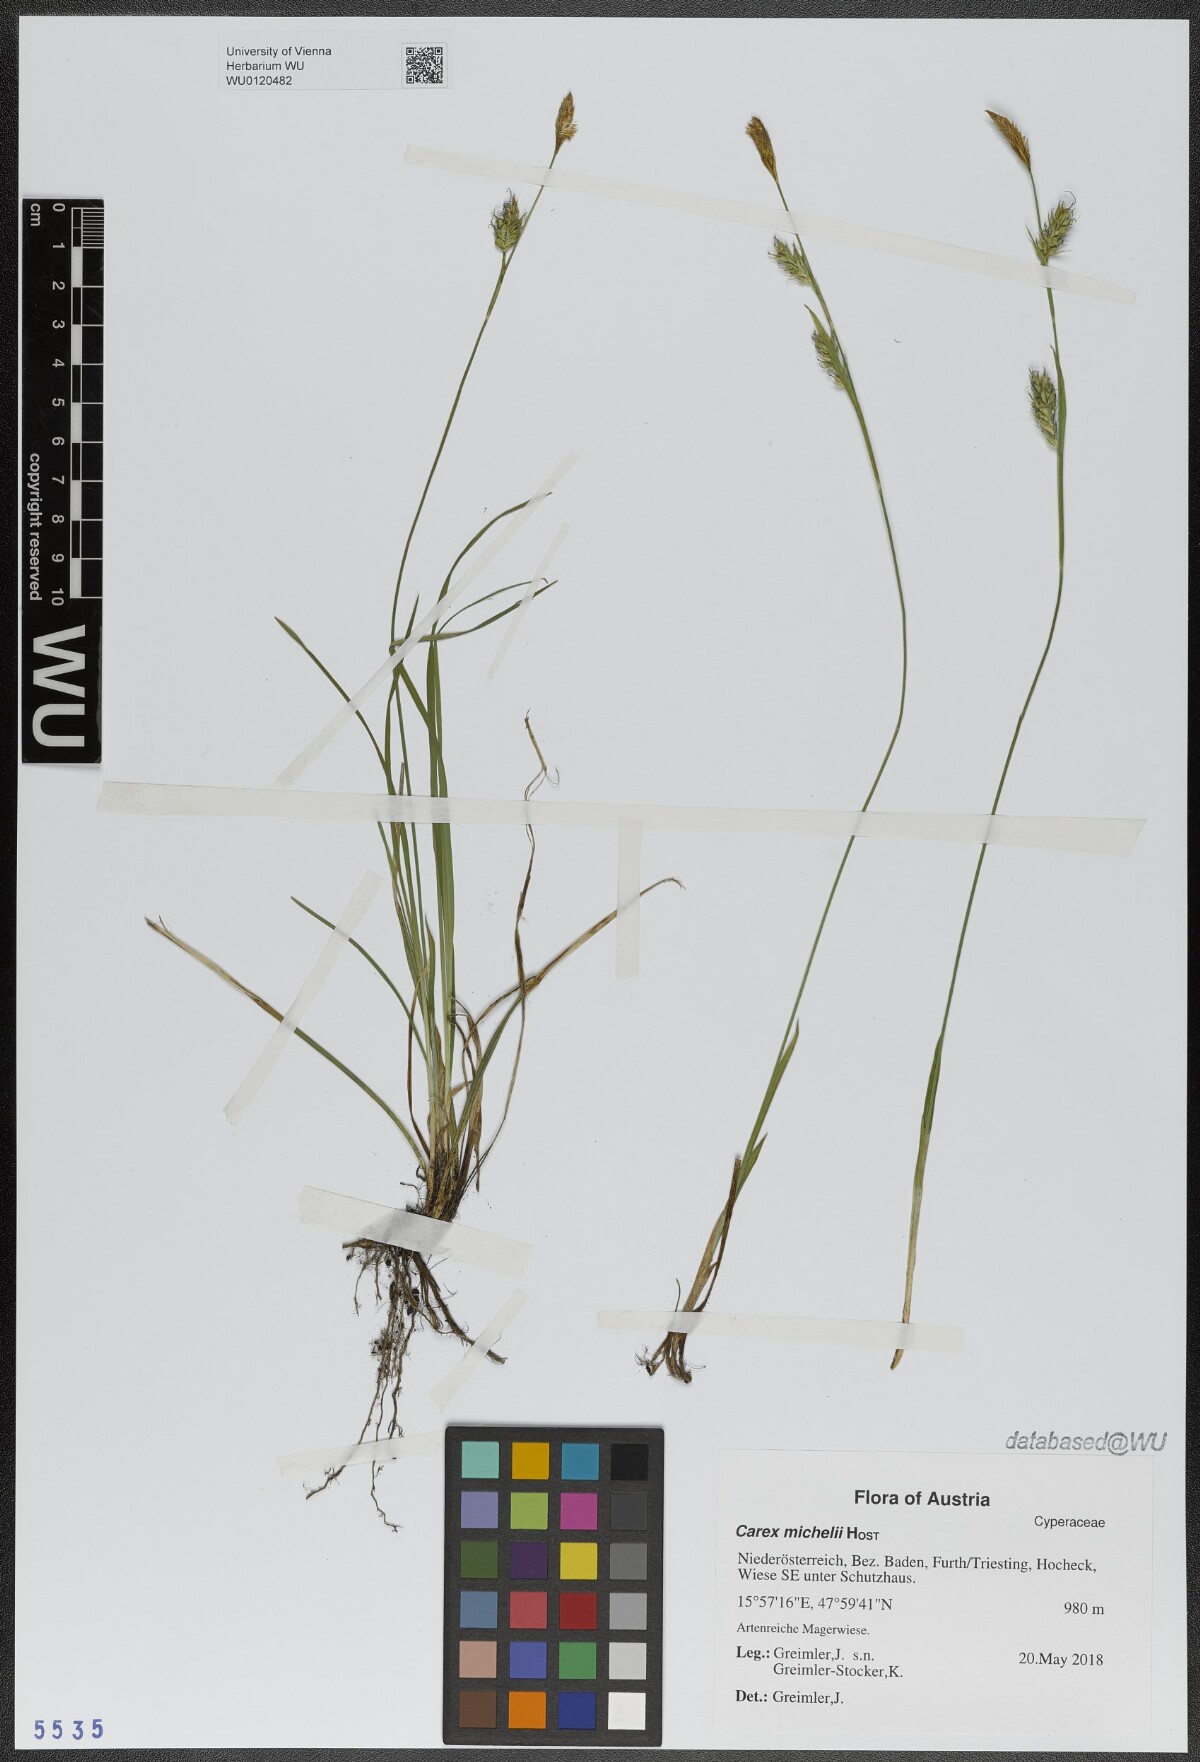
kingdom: Plantae
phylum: Tracheophyta
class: Liliopsida
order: Poales
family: Cyperaceae
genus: Carex
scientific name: Carex michelii
